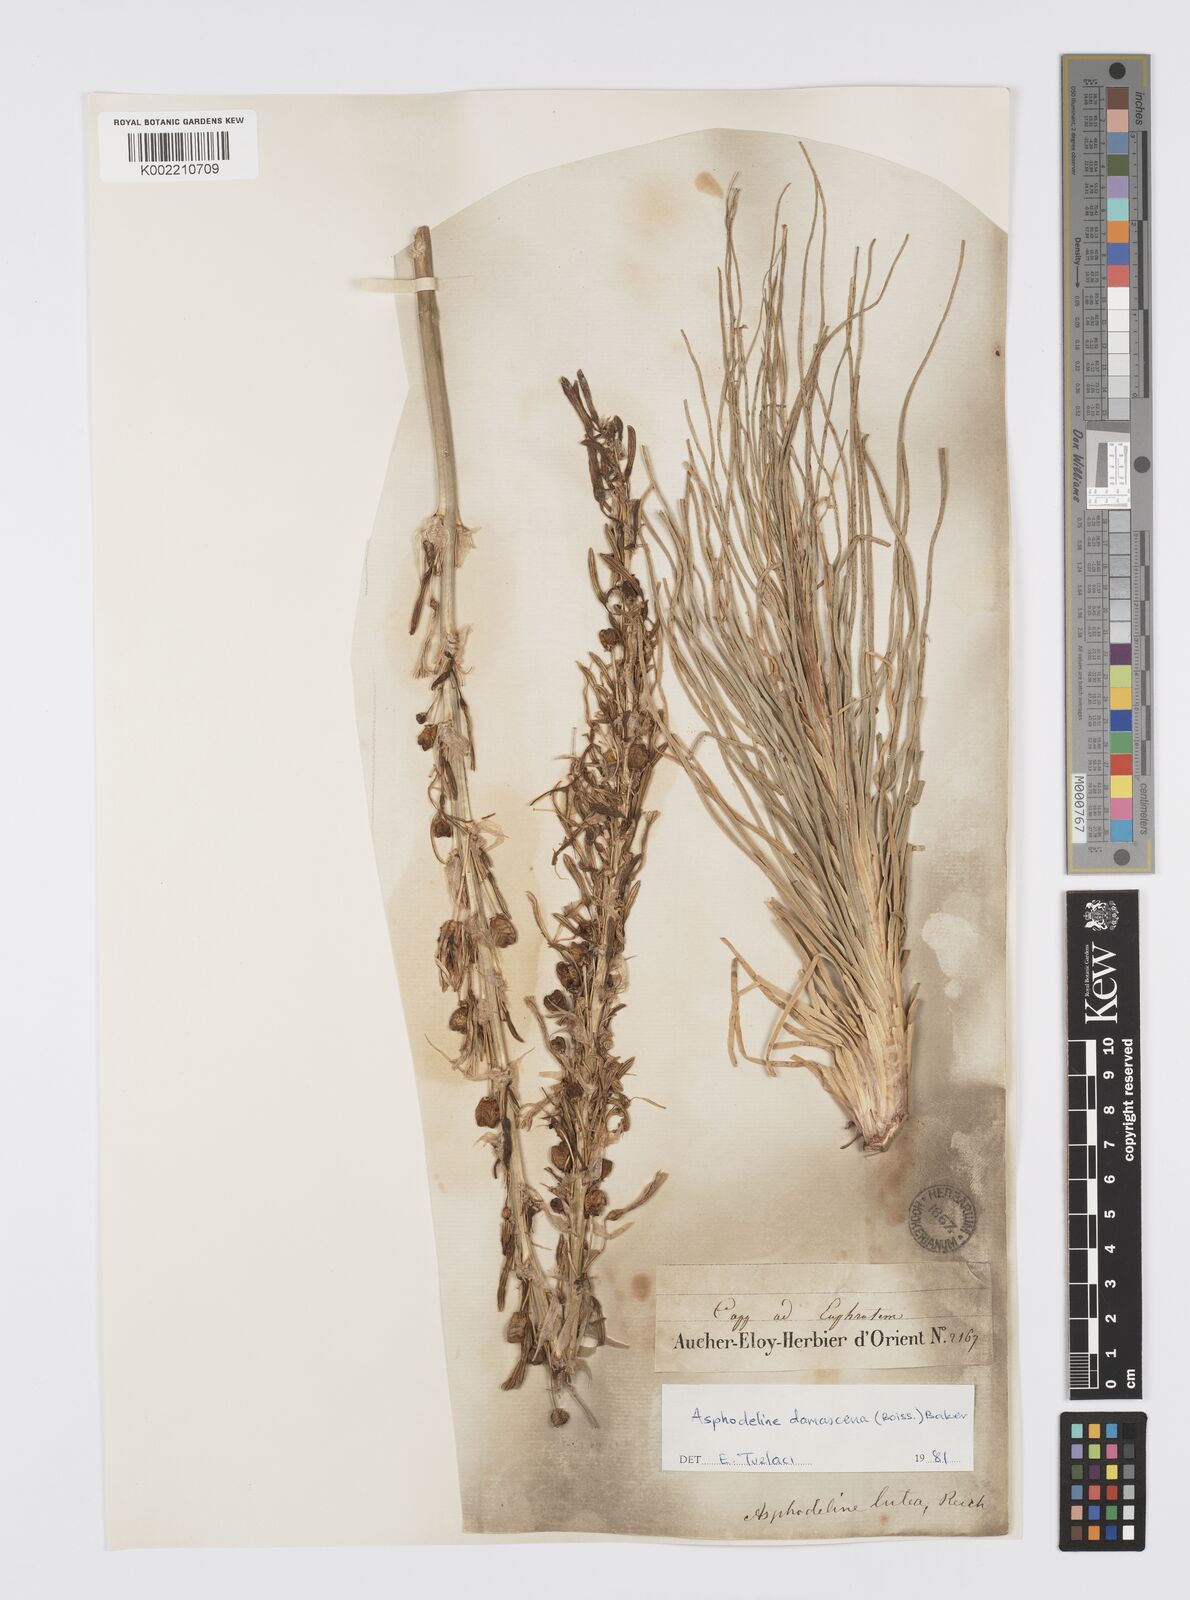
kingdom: Plantae
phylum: Tracheophyta
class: Liliopsida
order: Asparagales
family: Asphodelaceae
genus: Asphodeline
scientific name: Asphodeline damascena
